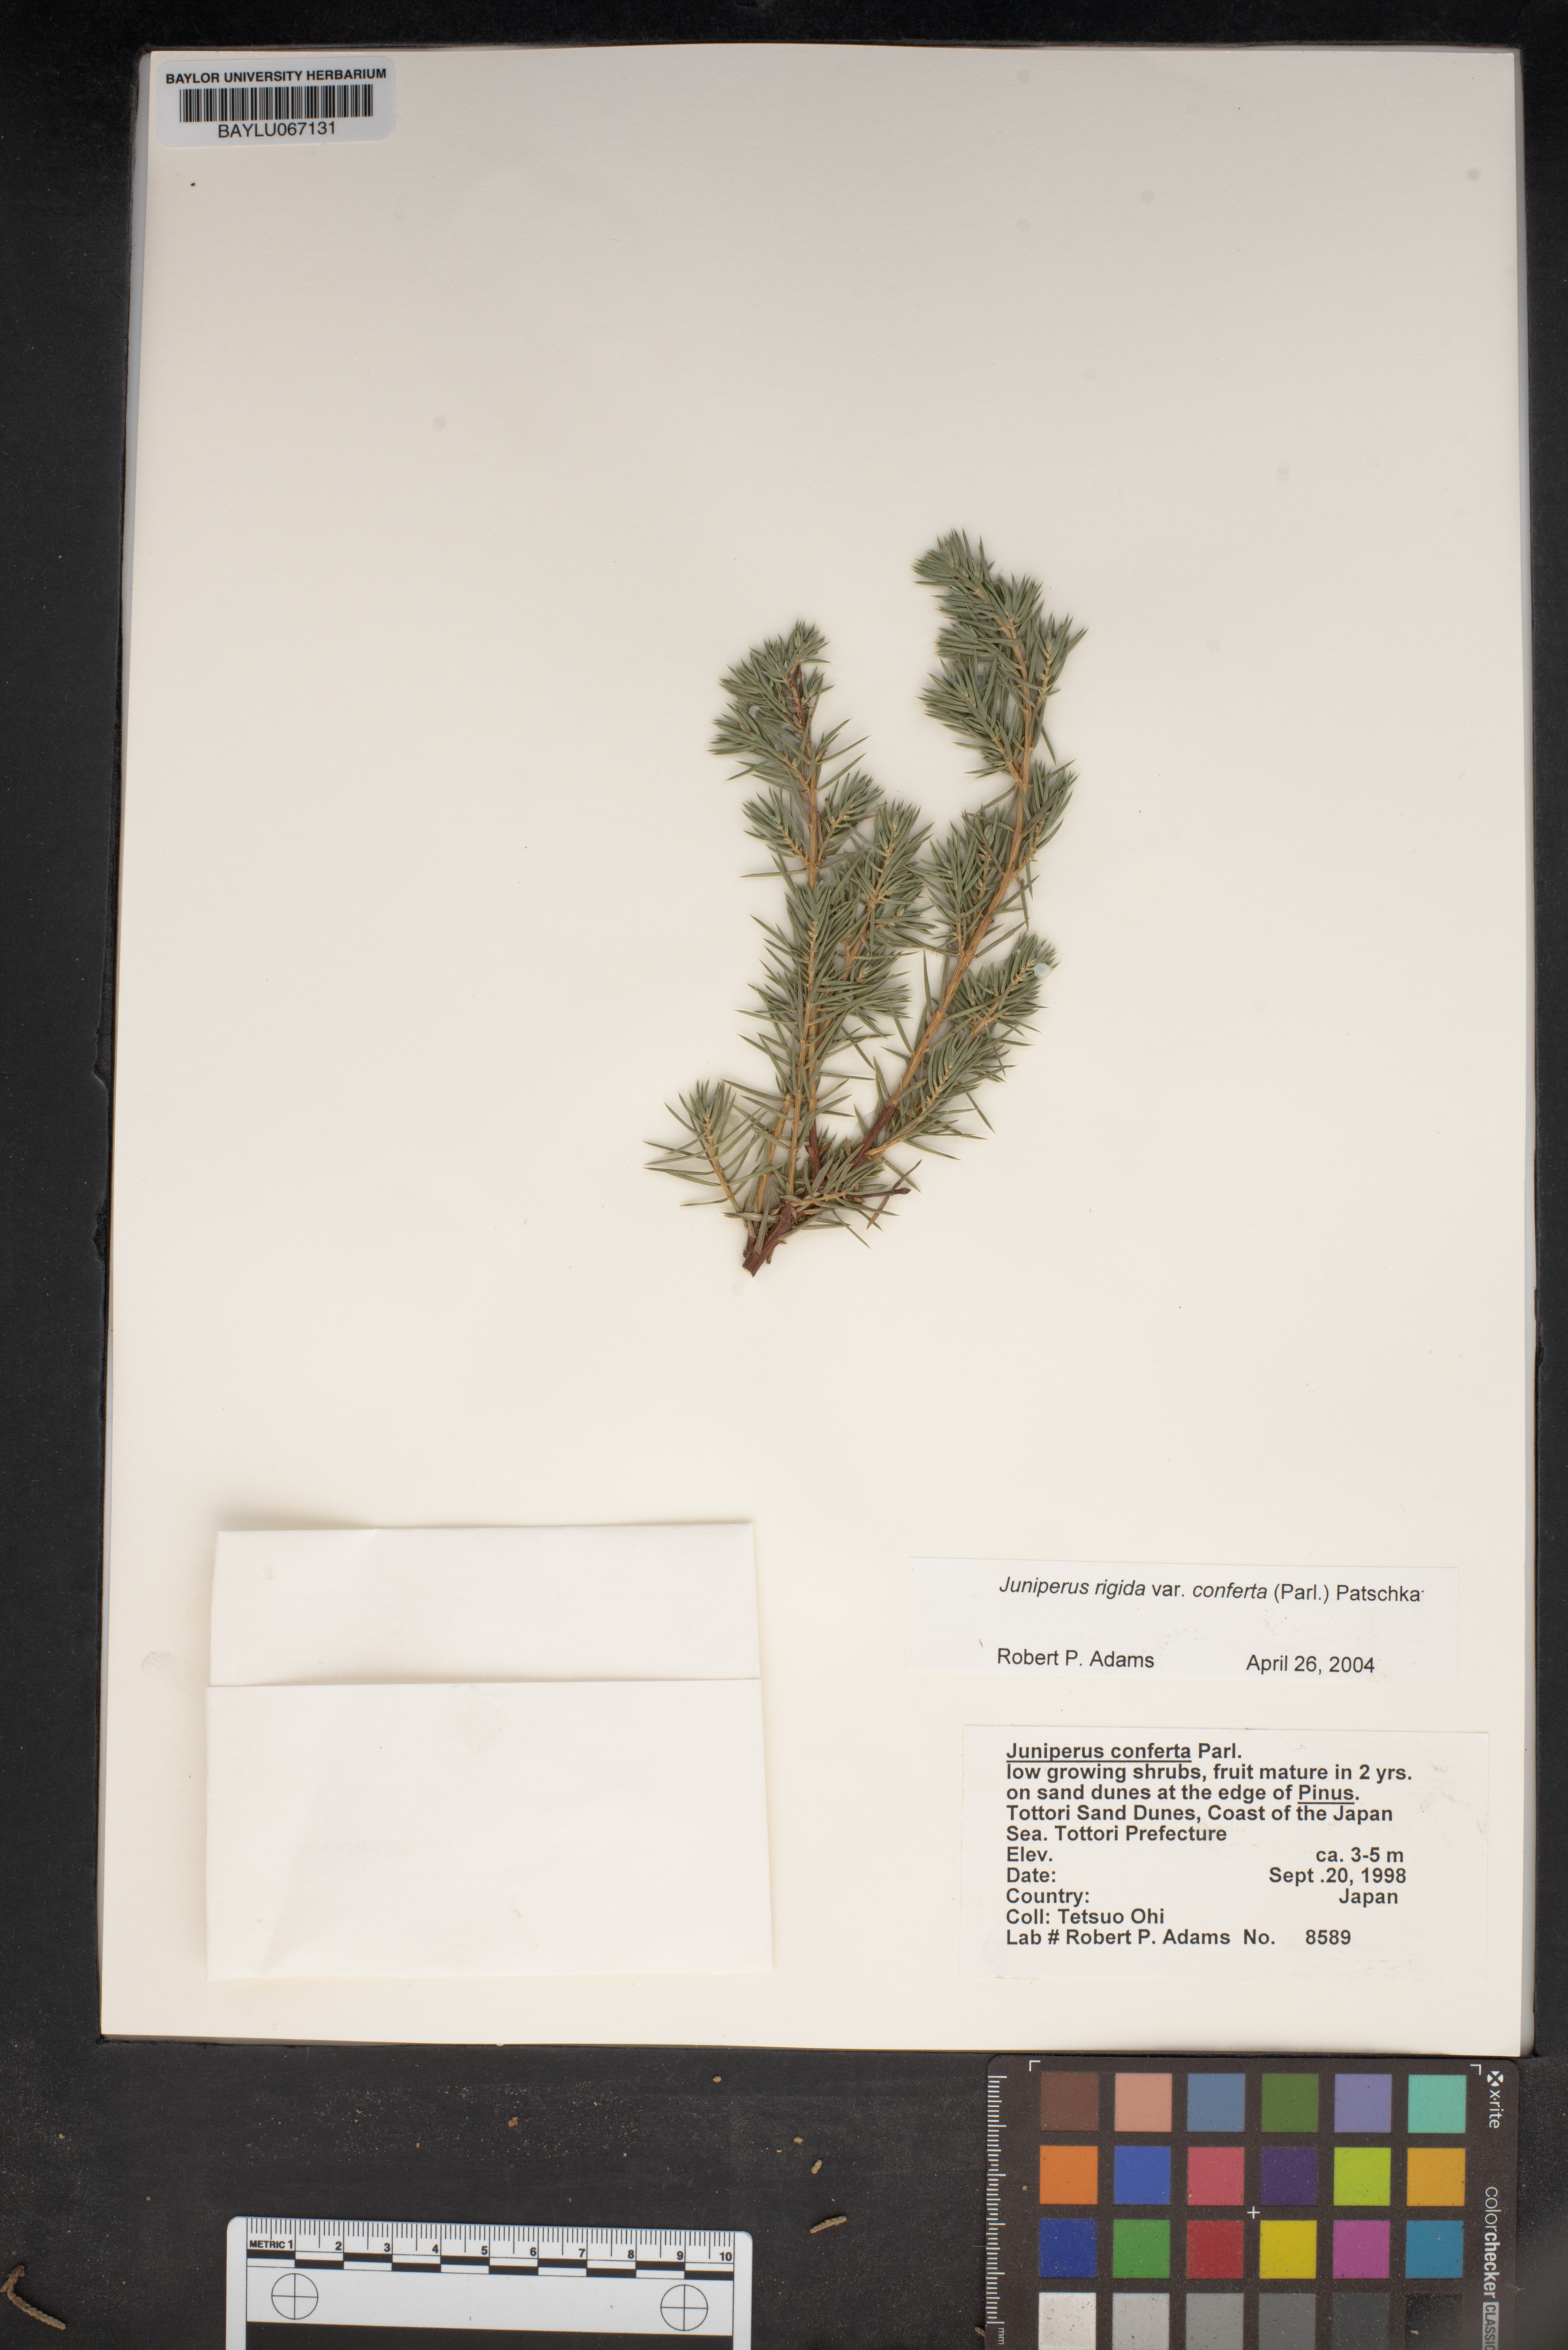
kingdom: Plantae
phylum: Tracheophyta
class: Pinopsida
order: Pinales
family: Cupressaceae
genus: Juniperus
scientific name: Juniperus rigida
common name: Needle juniper
